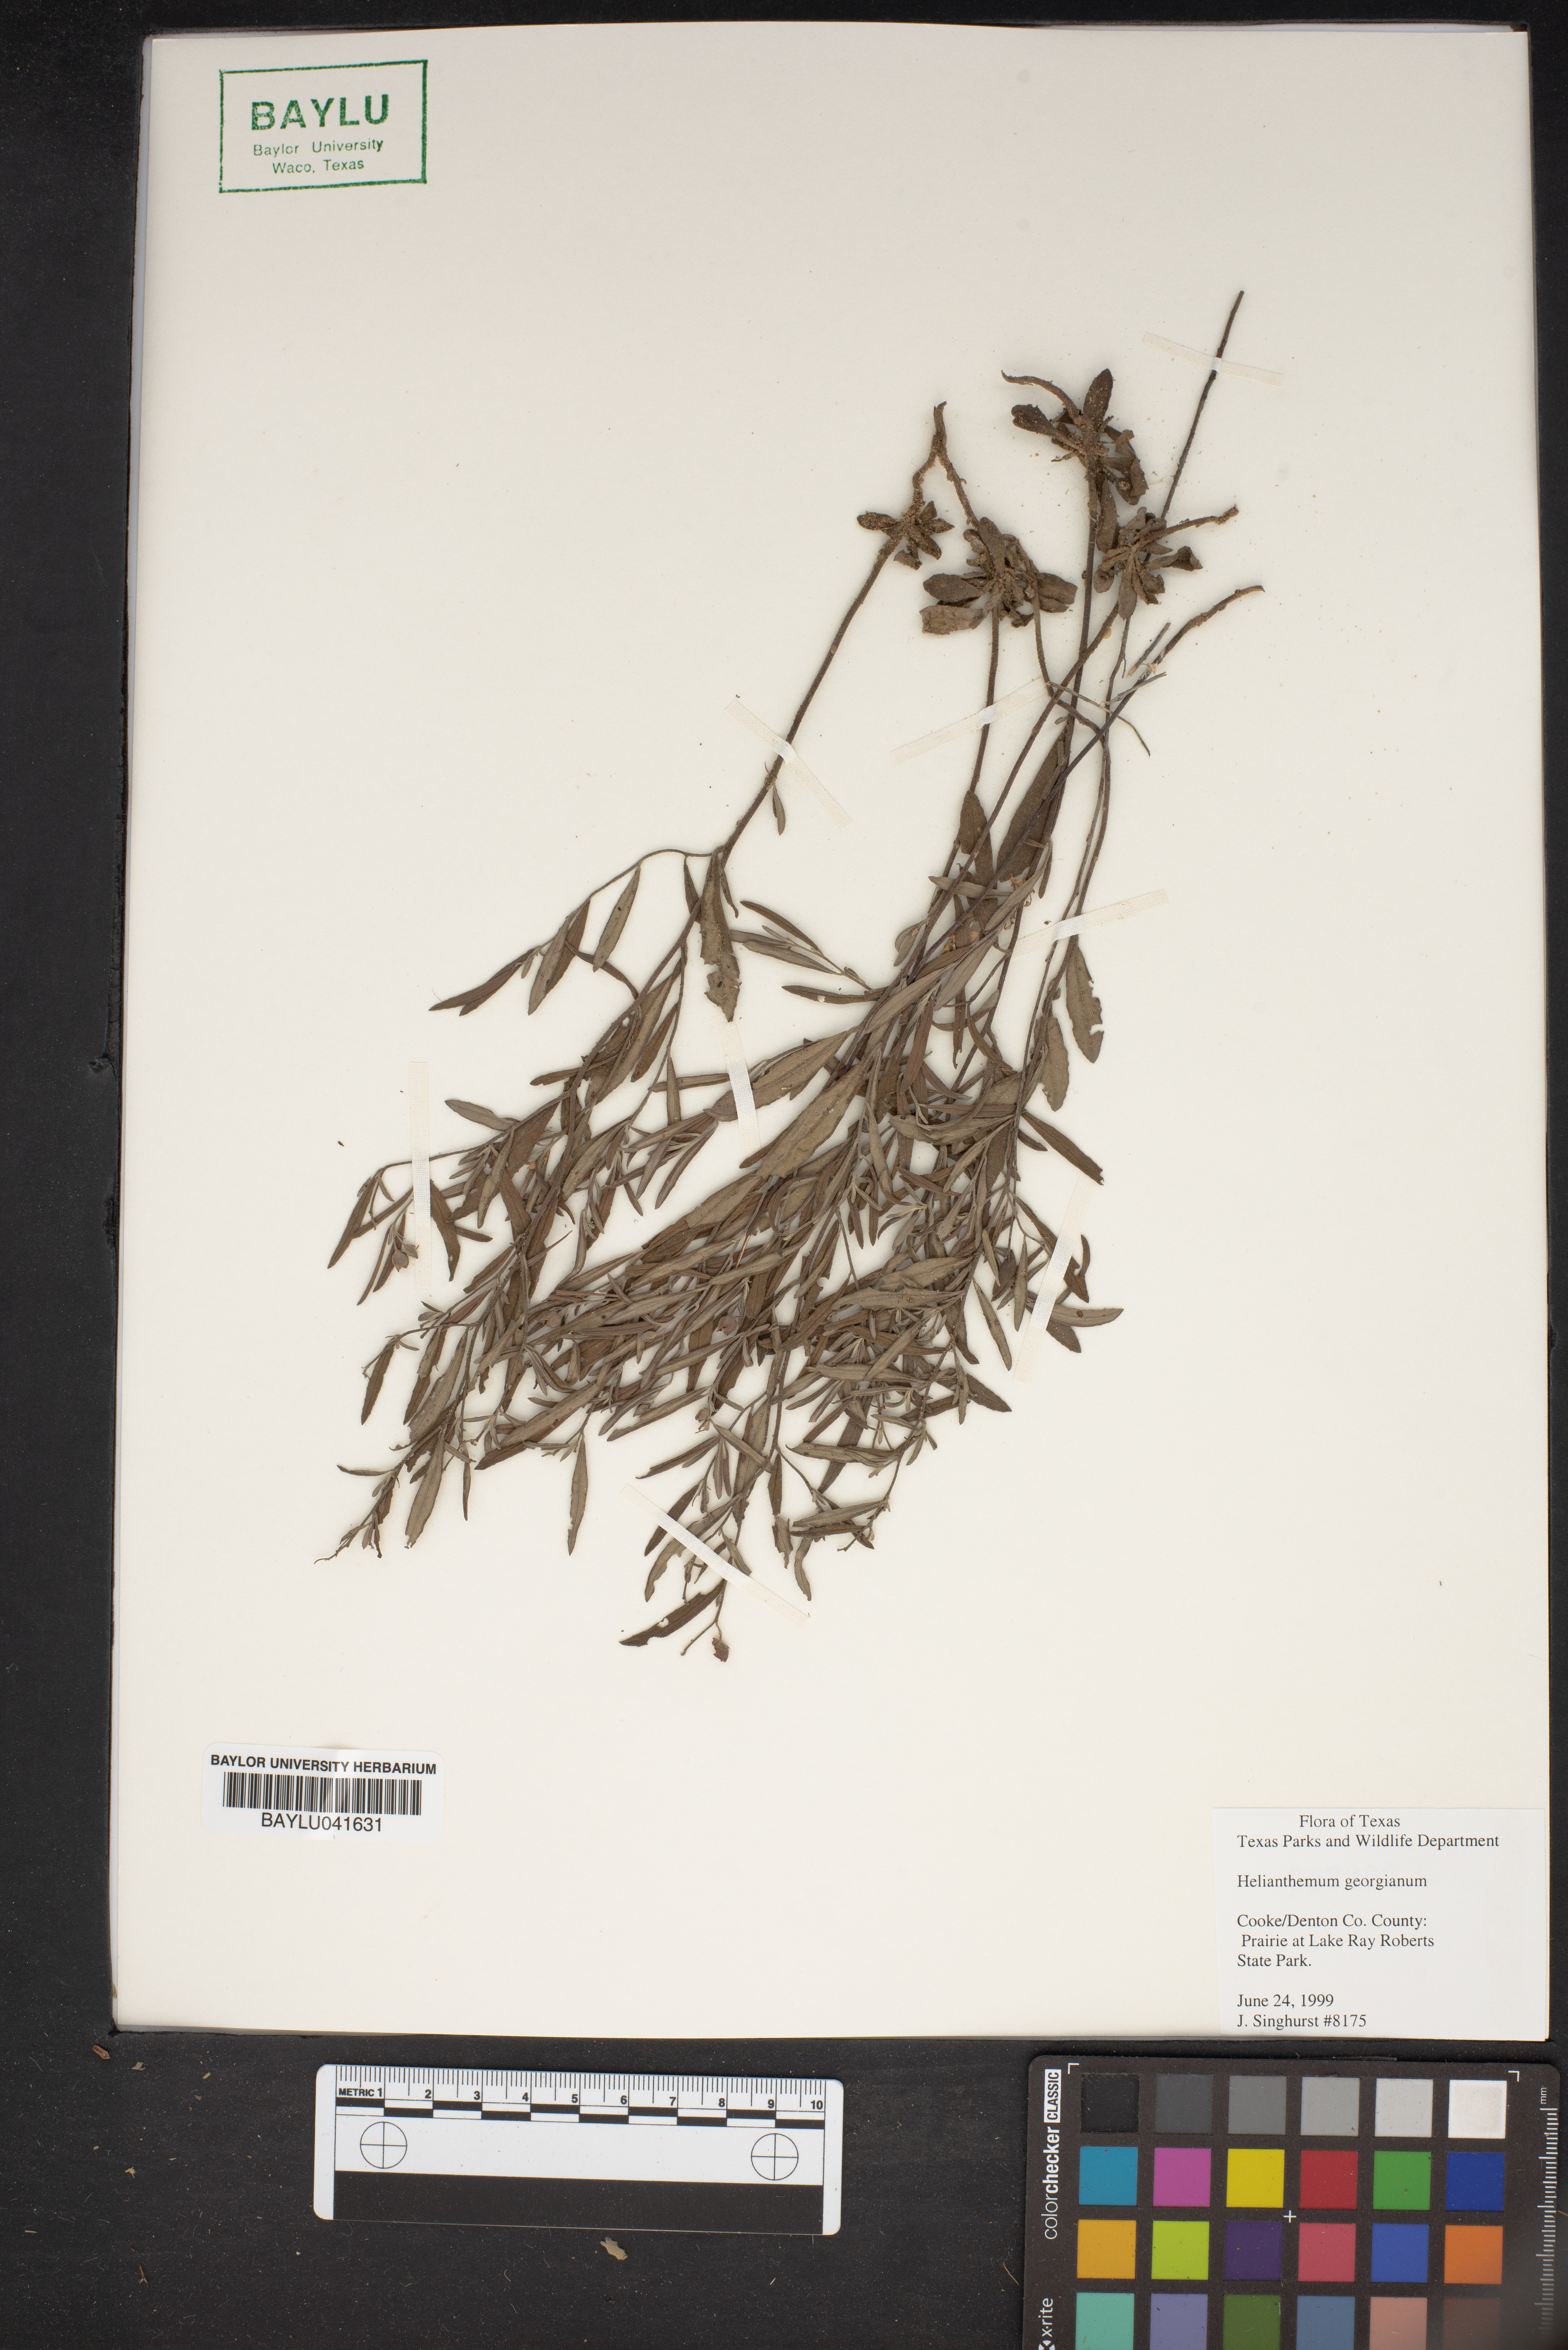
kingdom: Plantae
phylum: Tracheophyta
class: Magnoliopsida
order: Malvales
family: Cistaceae
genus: Crocanthemum
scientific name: Crocanthemum georgianum
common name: Georgia frostweed
